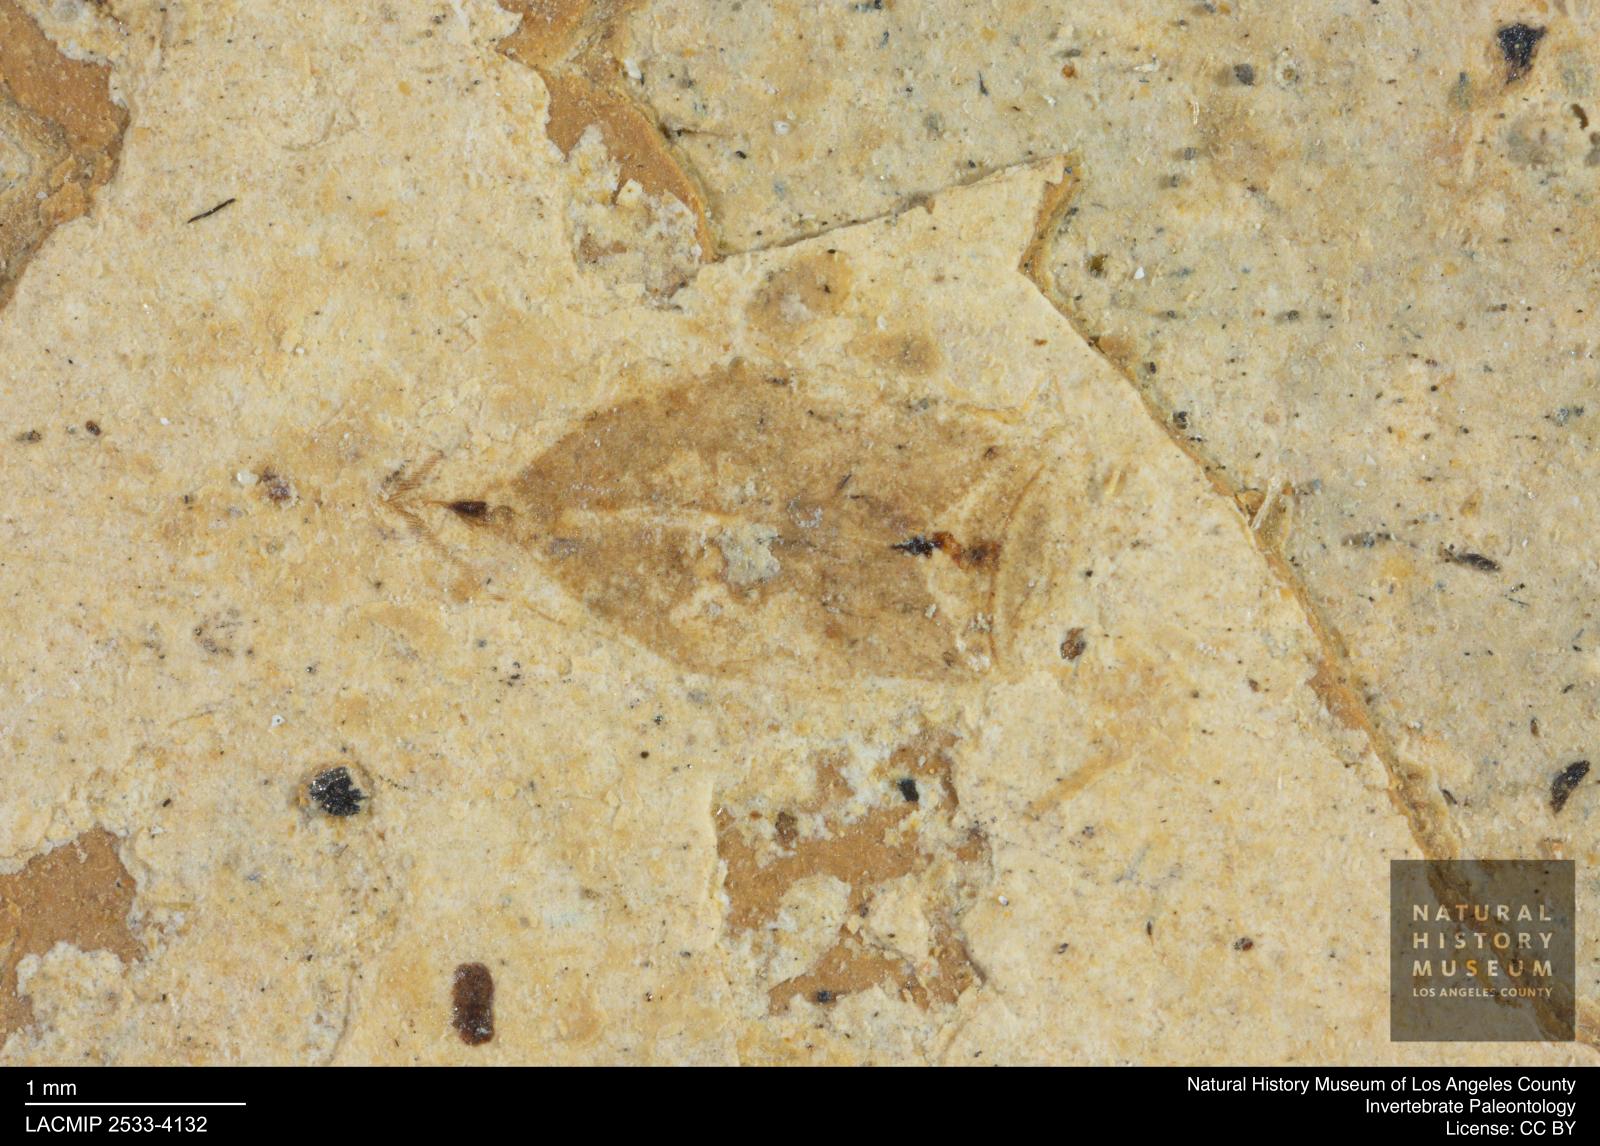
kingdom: Animalia
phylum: Arthropoda
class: Insecta
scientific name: Insecta
